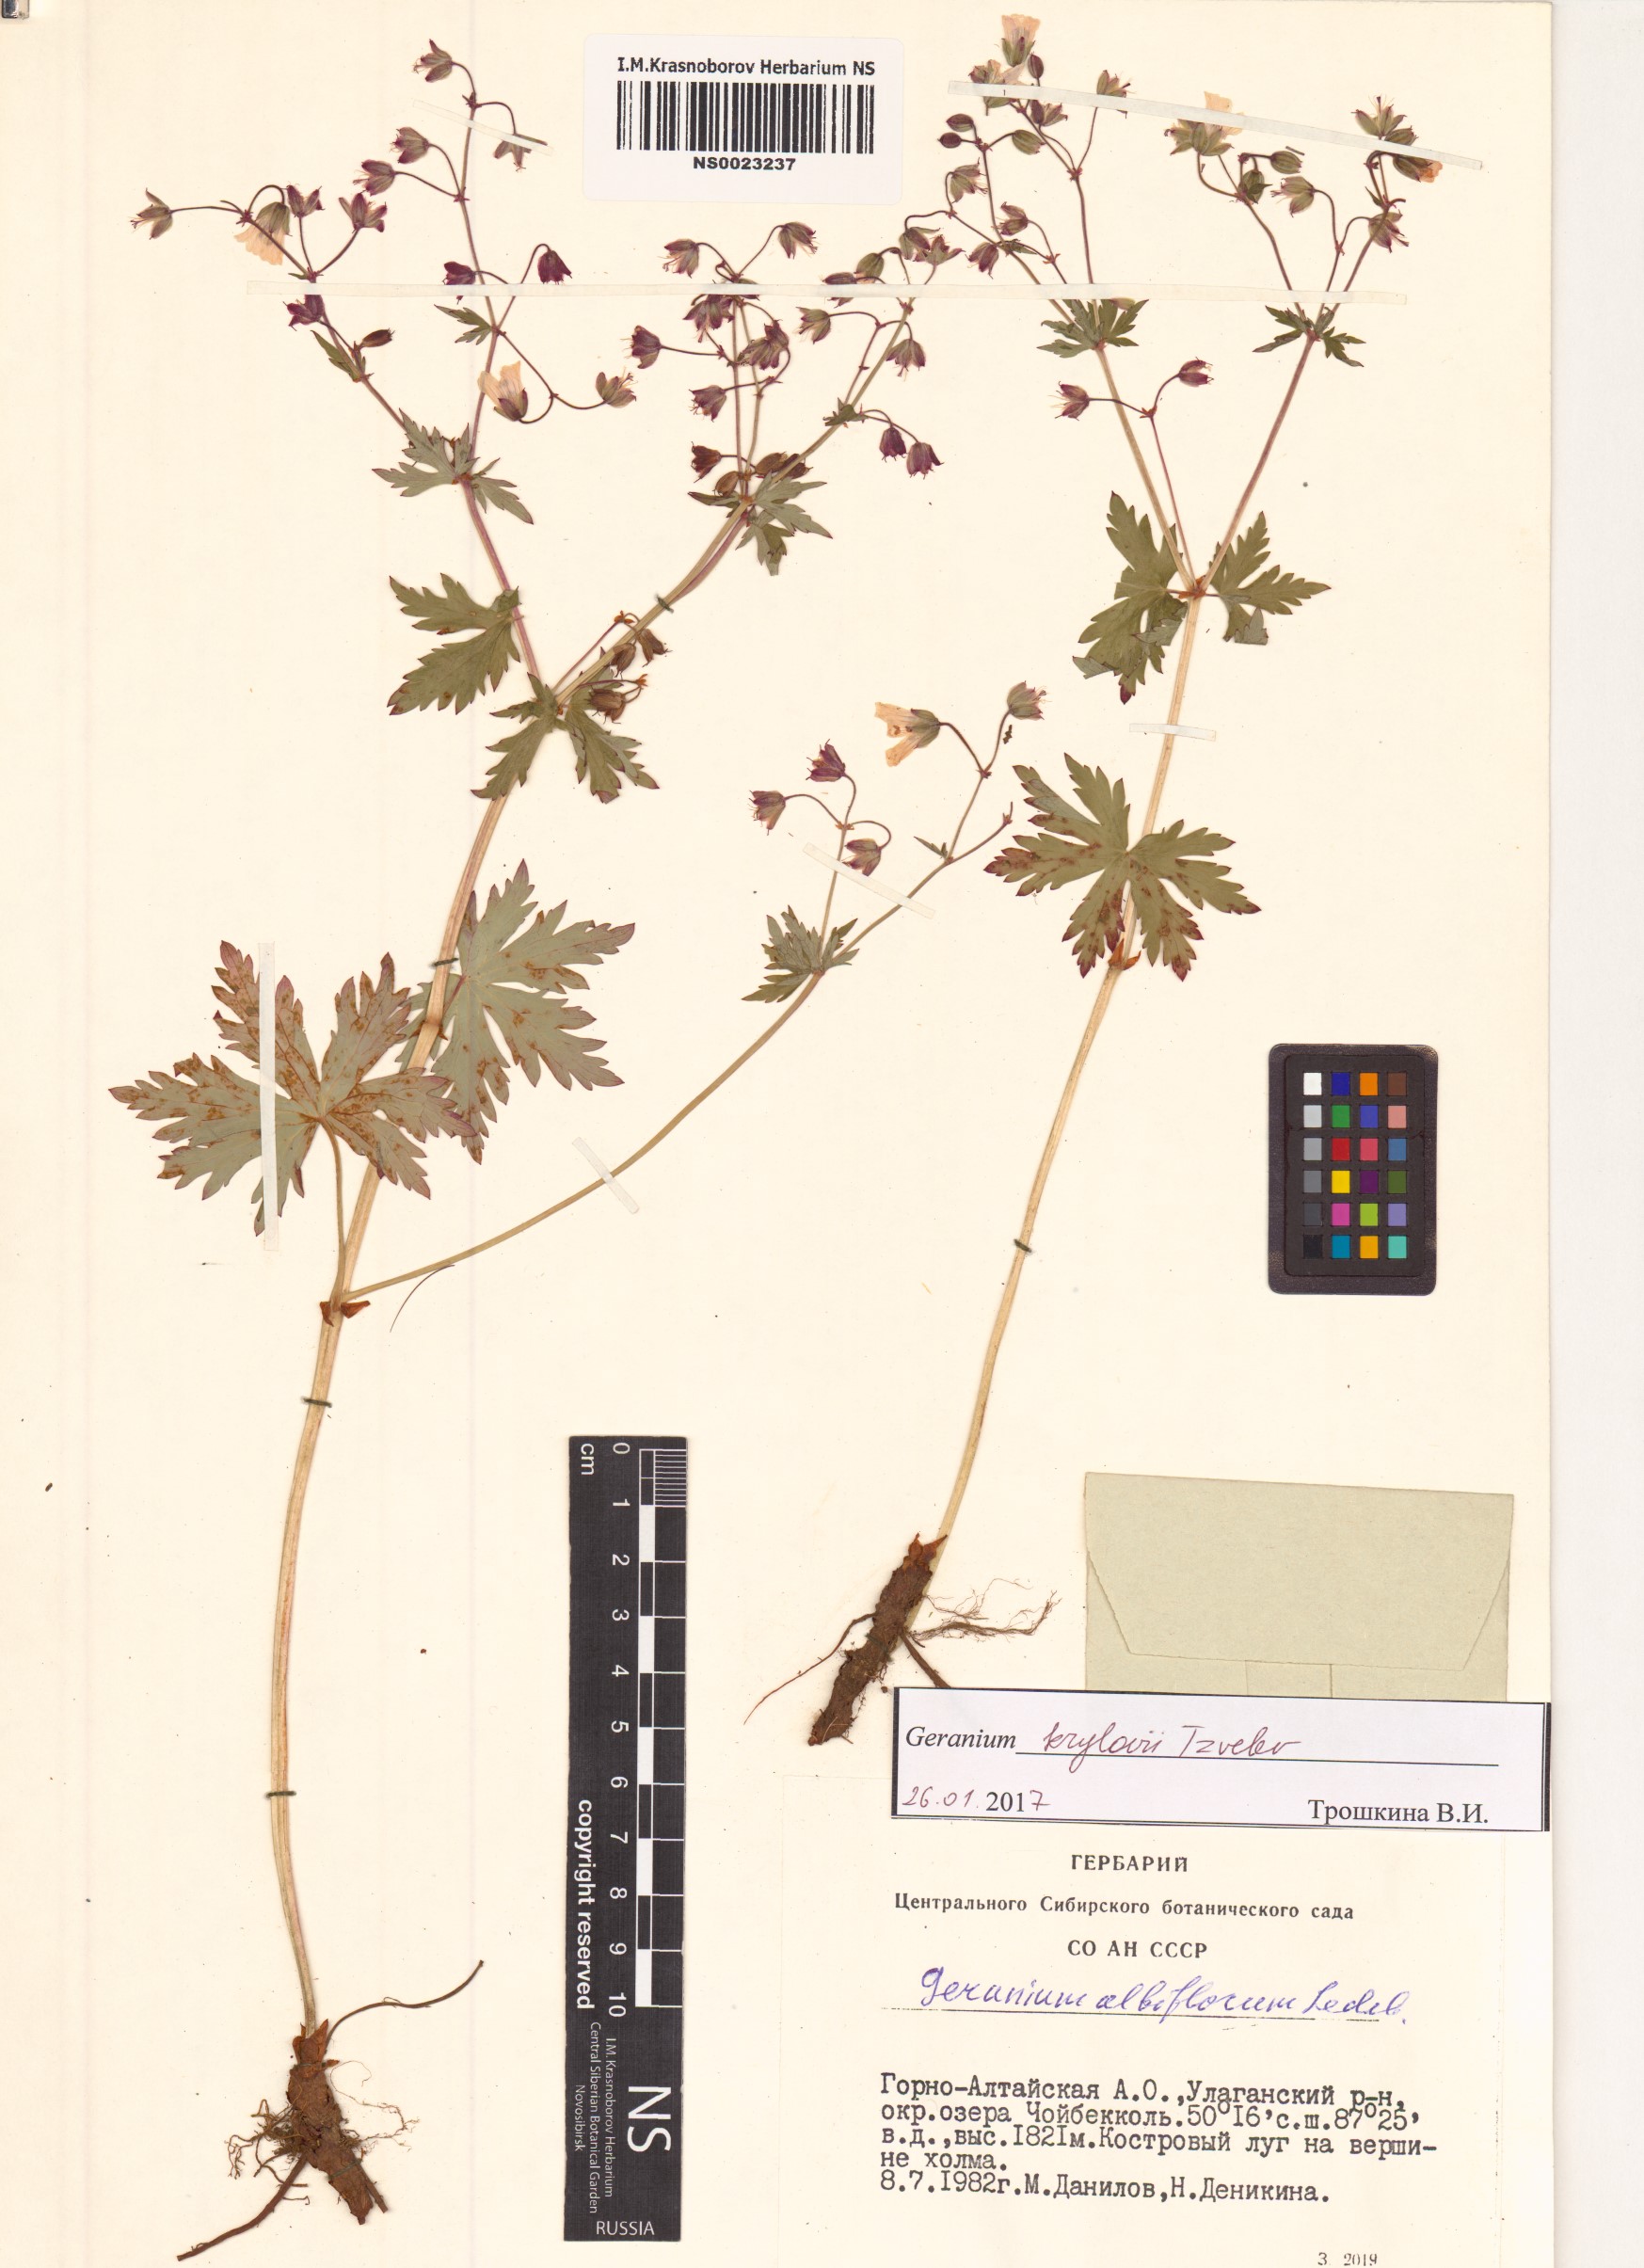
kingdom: Plantae
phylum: Tracheophyta
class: Magnoliopsida
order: Geraniales
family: Geraniaceae
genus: Geranium
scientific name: Geranium sylvaticum
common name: Wood crane's-bill
